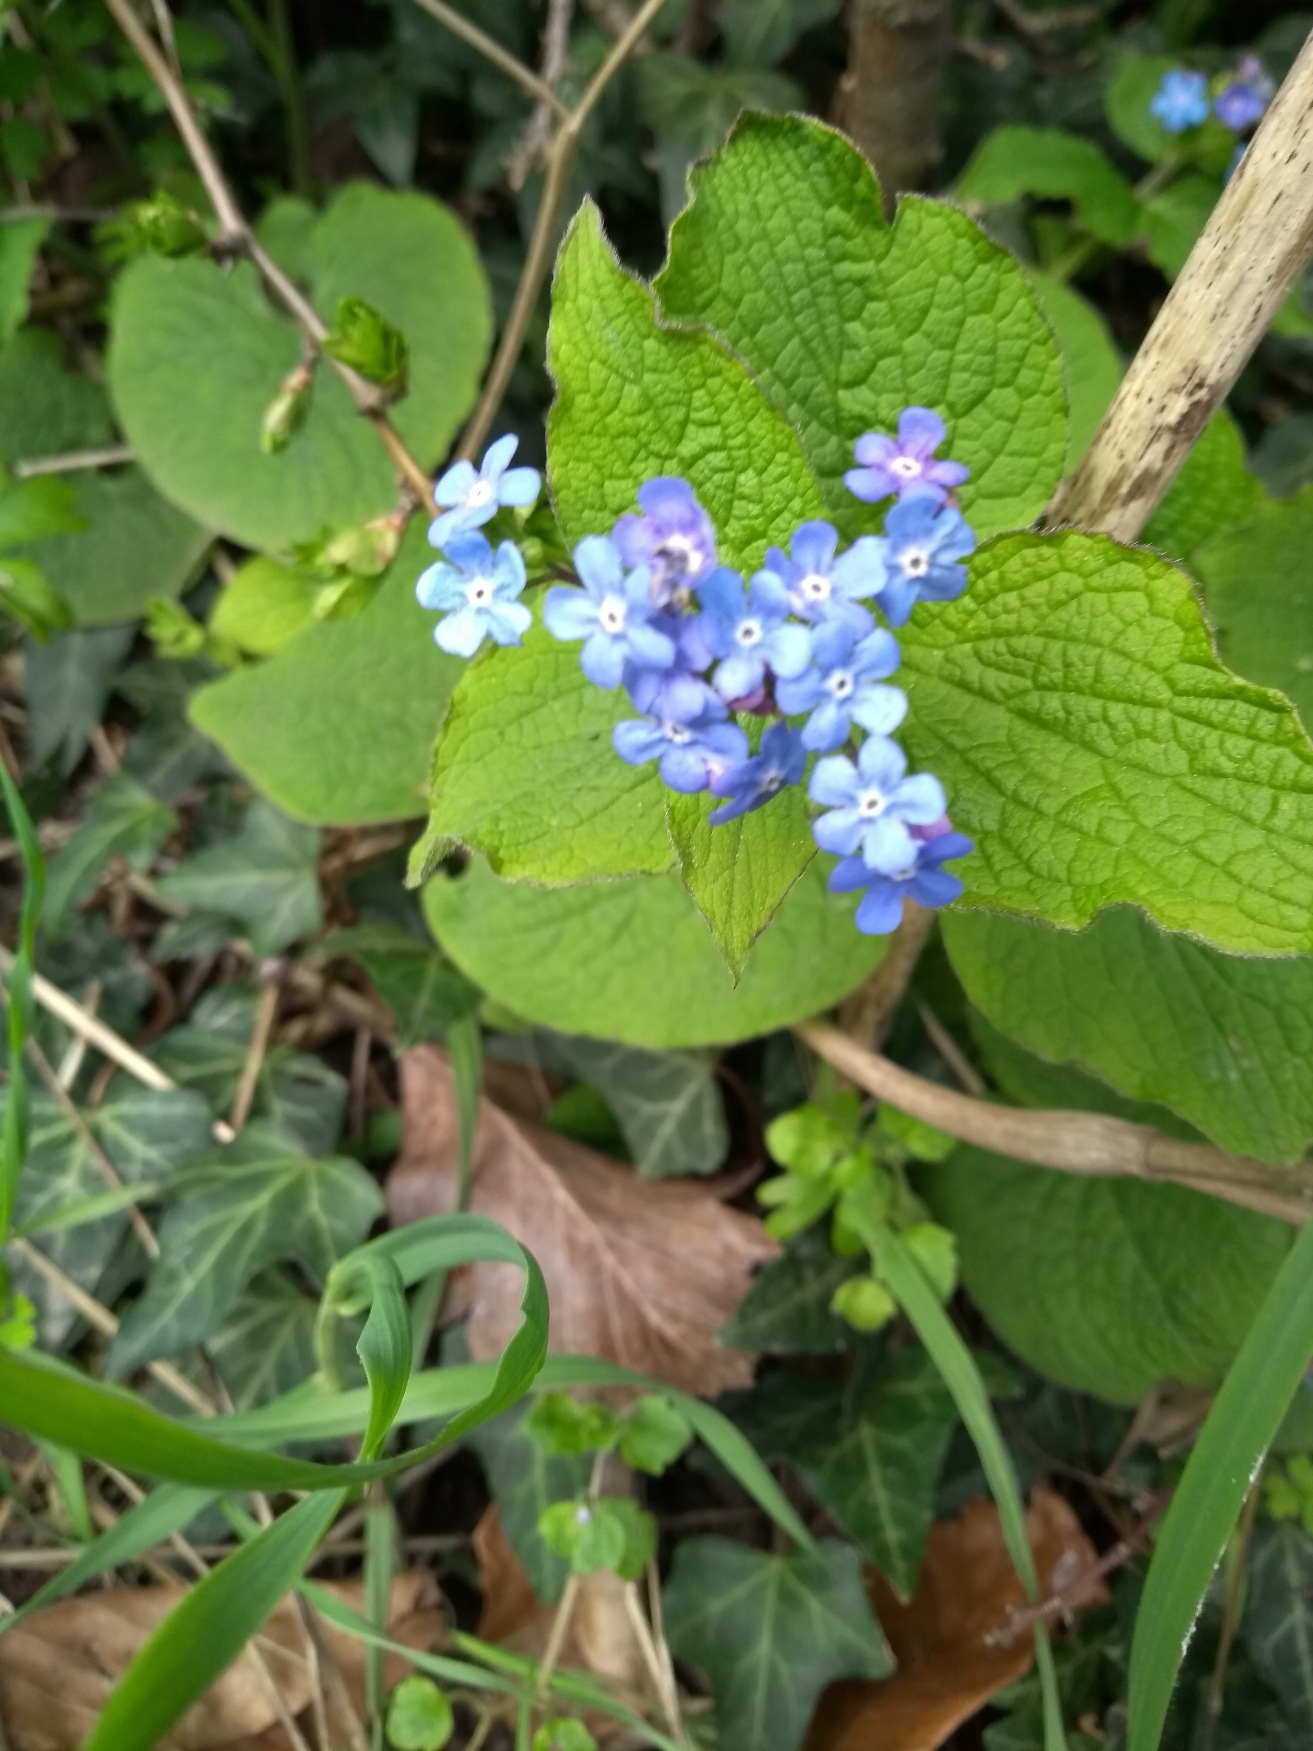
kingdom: Plantae
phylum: Tracheophyta
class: Magnoliopsida
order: Boraginales
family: Boraginaceae
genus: Brunnera
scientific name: Brunnera macrophylla
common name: Kærmindesøster
